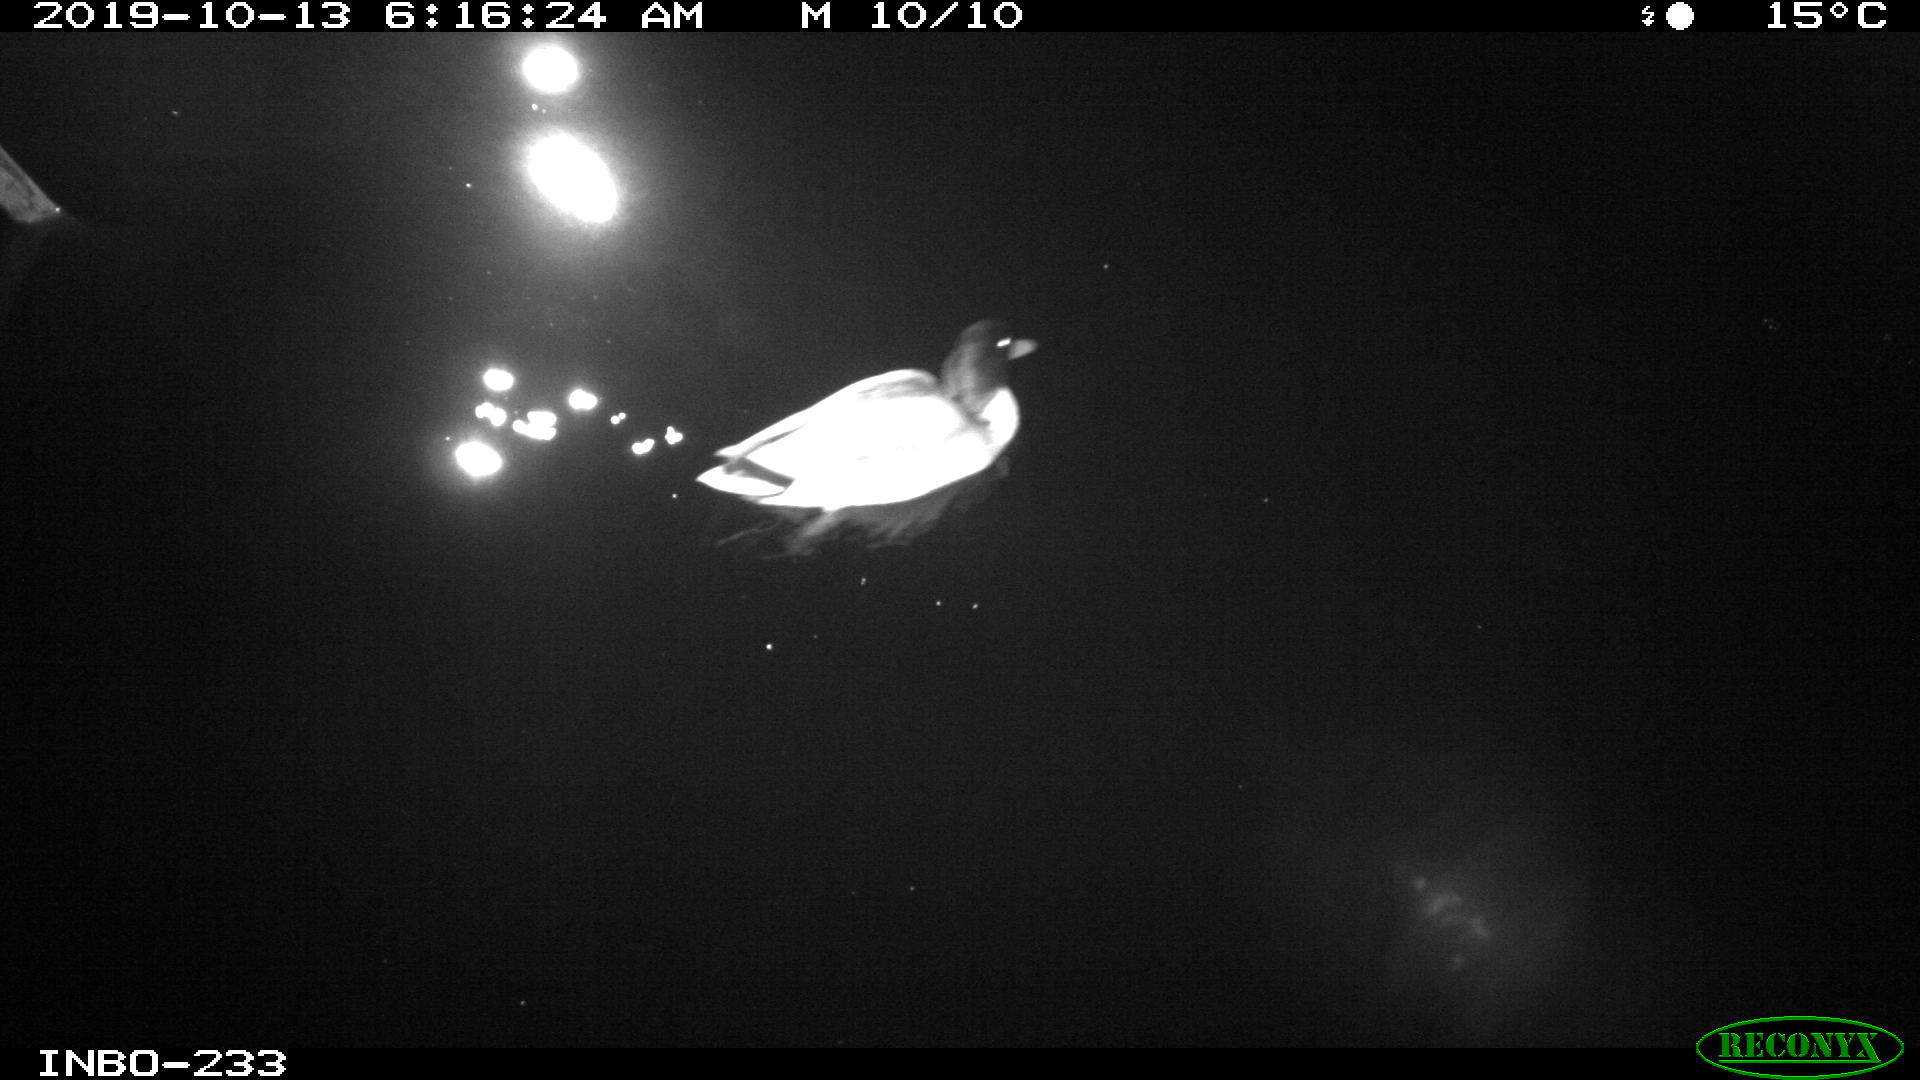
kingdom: Animalia
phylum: Chordata
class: Aves
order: Anseriformes
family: Anatidae
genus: Anas
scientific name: Anas platyrhynchos
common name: Mallard
